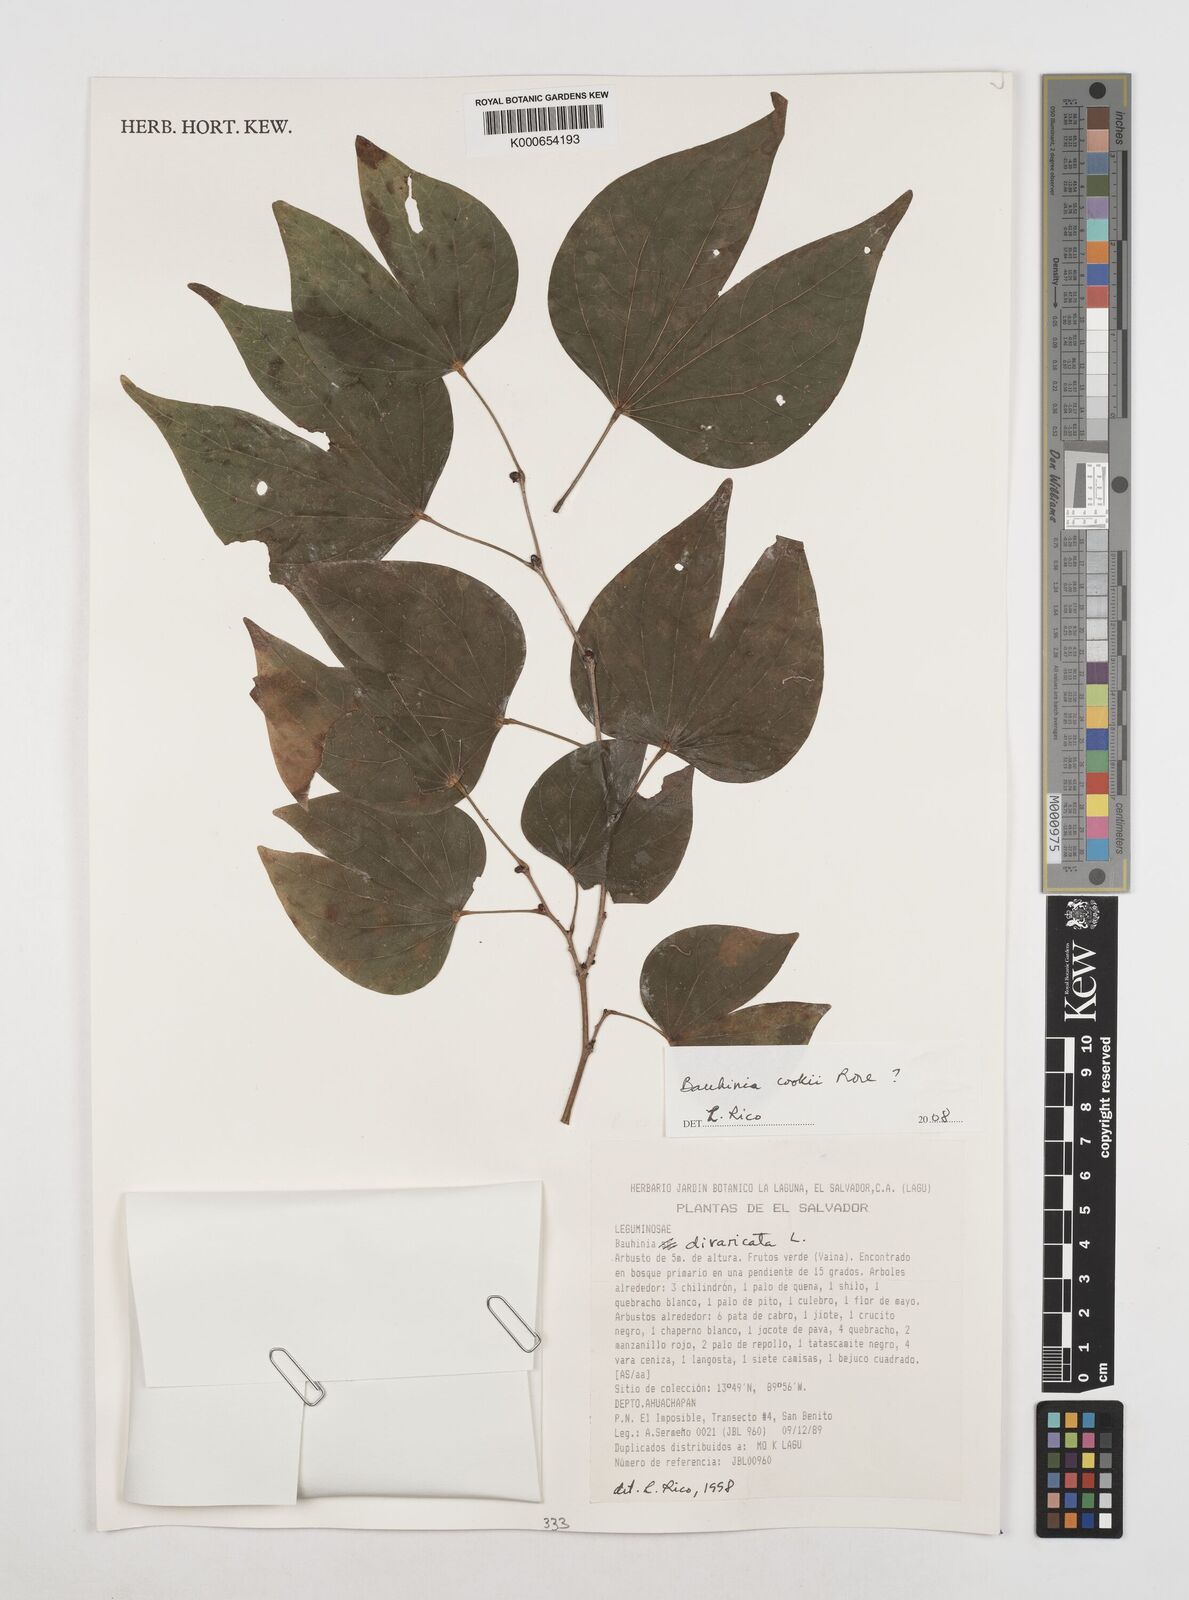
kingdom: Plantae
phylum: Tracheophyta
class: Magnoliopsida
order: Fabales
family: Fabaceae
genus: Bauhinia
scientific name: Bauhinia cookii
